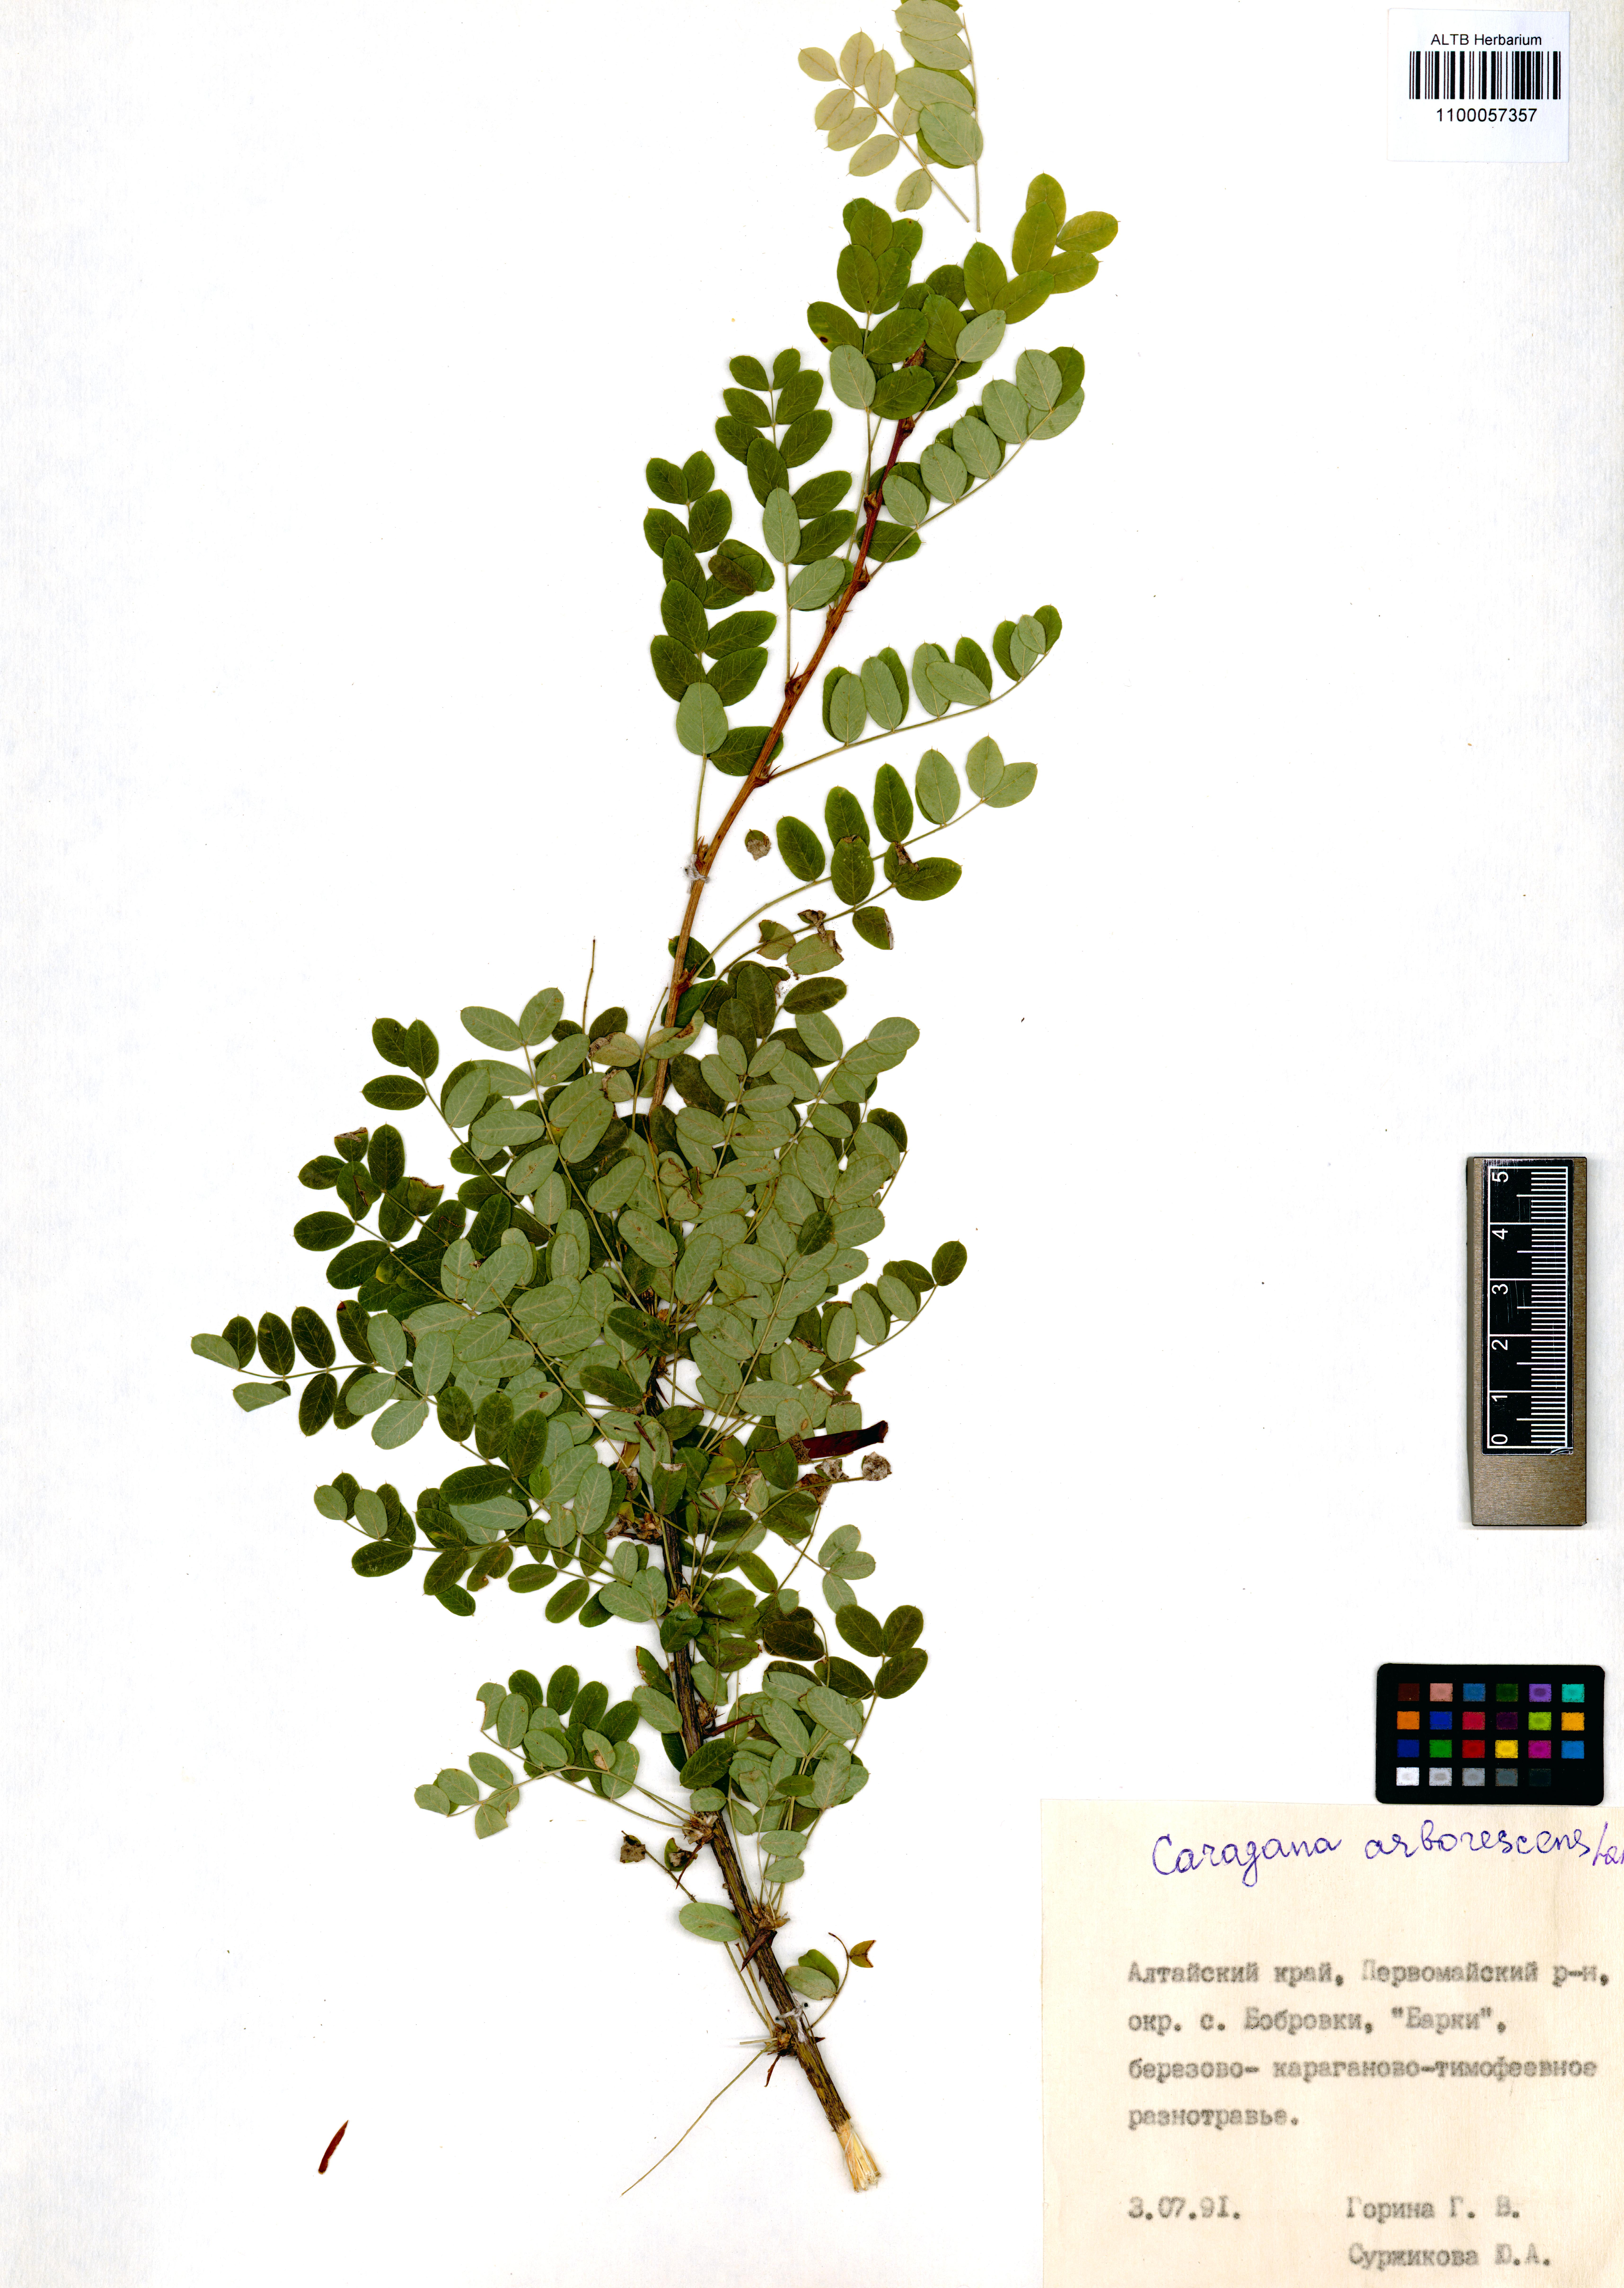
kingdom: Plantae
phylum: Tracheophyta
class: Magnoliopsida
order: Fabales
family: Fabaceae
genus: Caragana
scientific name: Caragana arborescens
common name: Siberian peashrub
